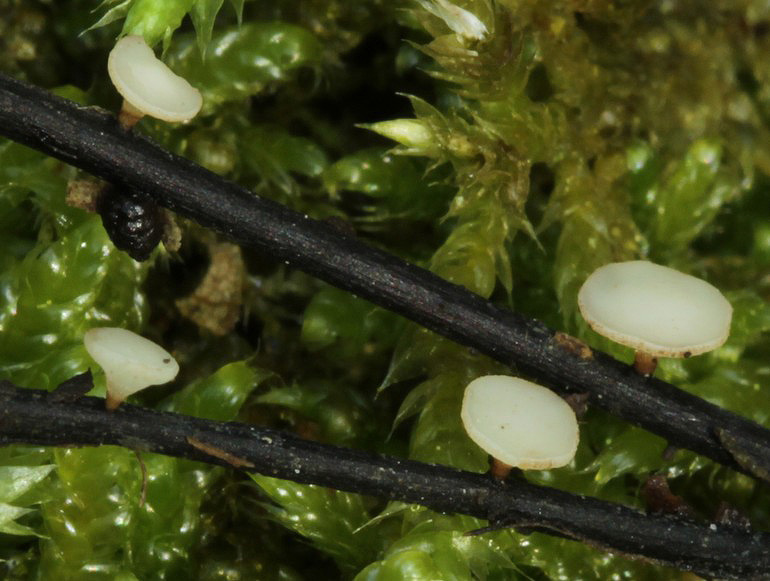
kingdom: Fungi
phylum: Ascomycota
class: Leotiomycetes
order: Helotiales
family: Helotiaceae
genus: Hymenoscyphus
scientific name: Hymenoscyphus fraxineus
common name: asketoptørre-stilkskive
